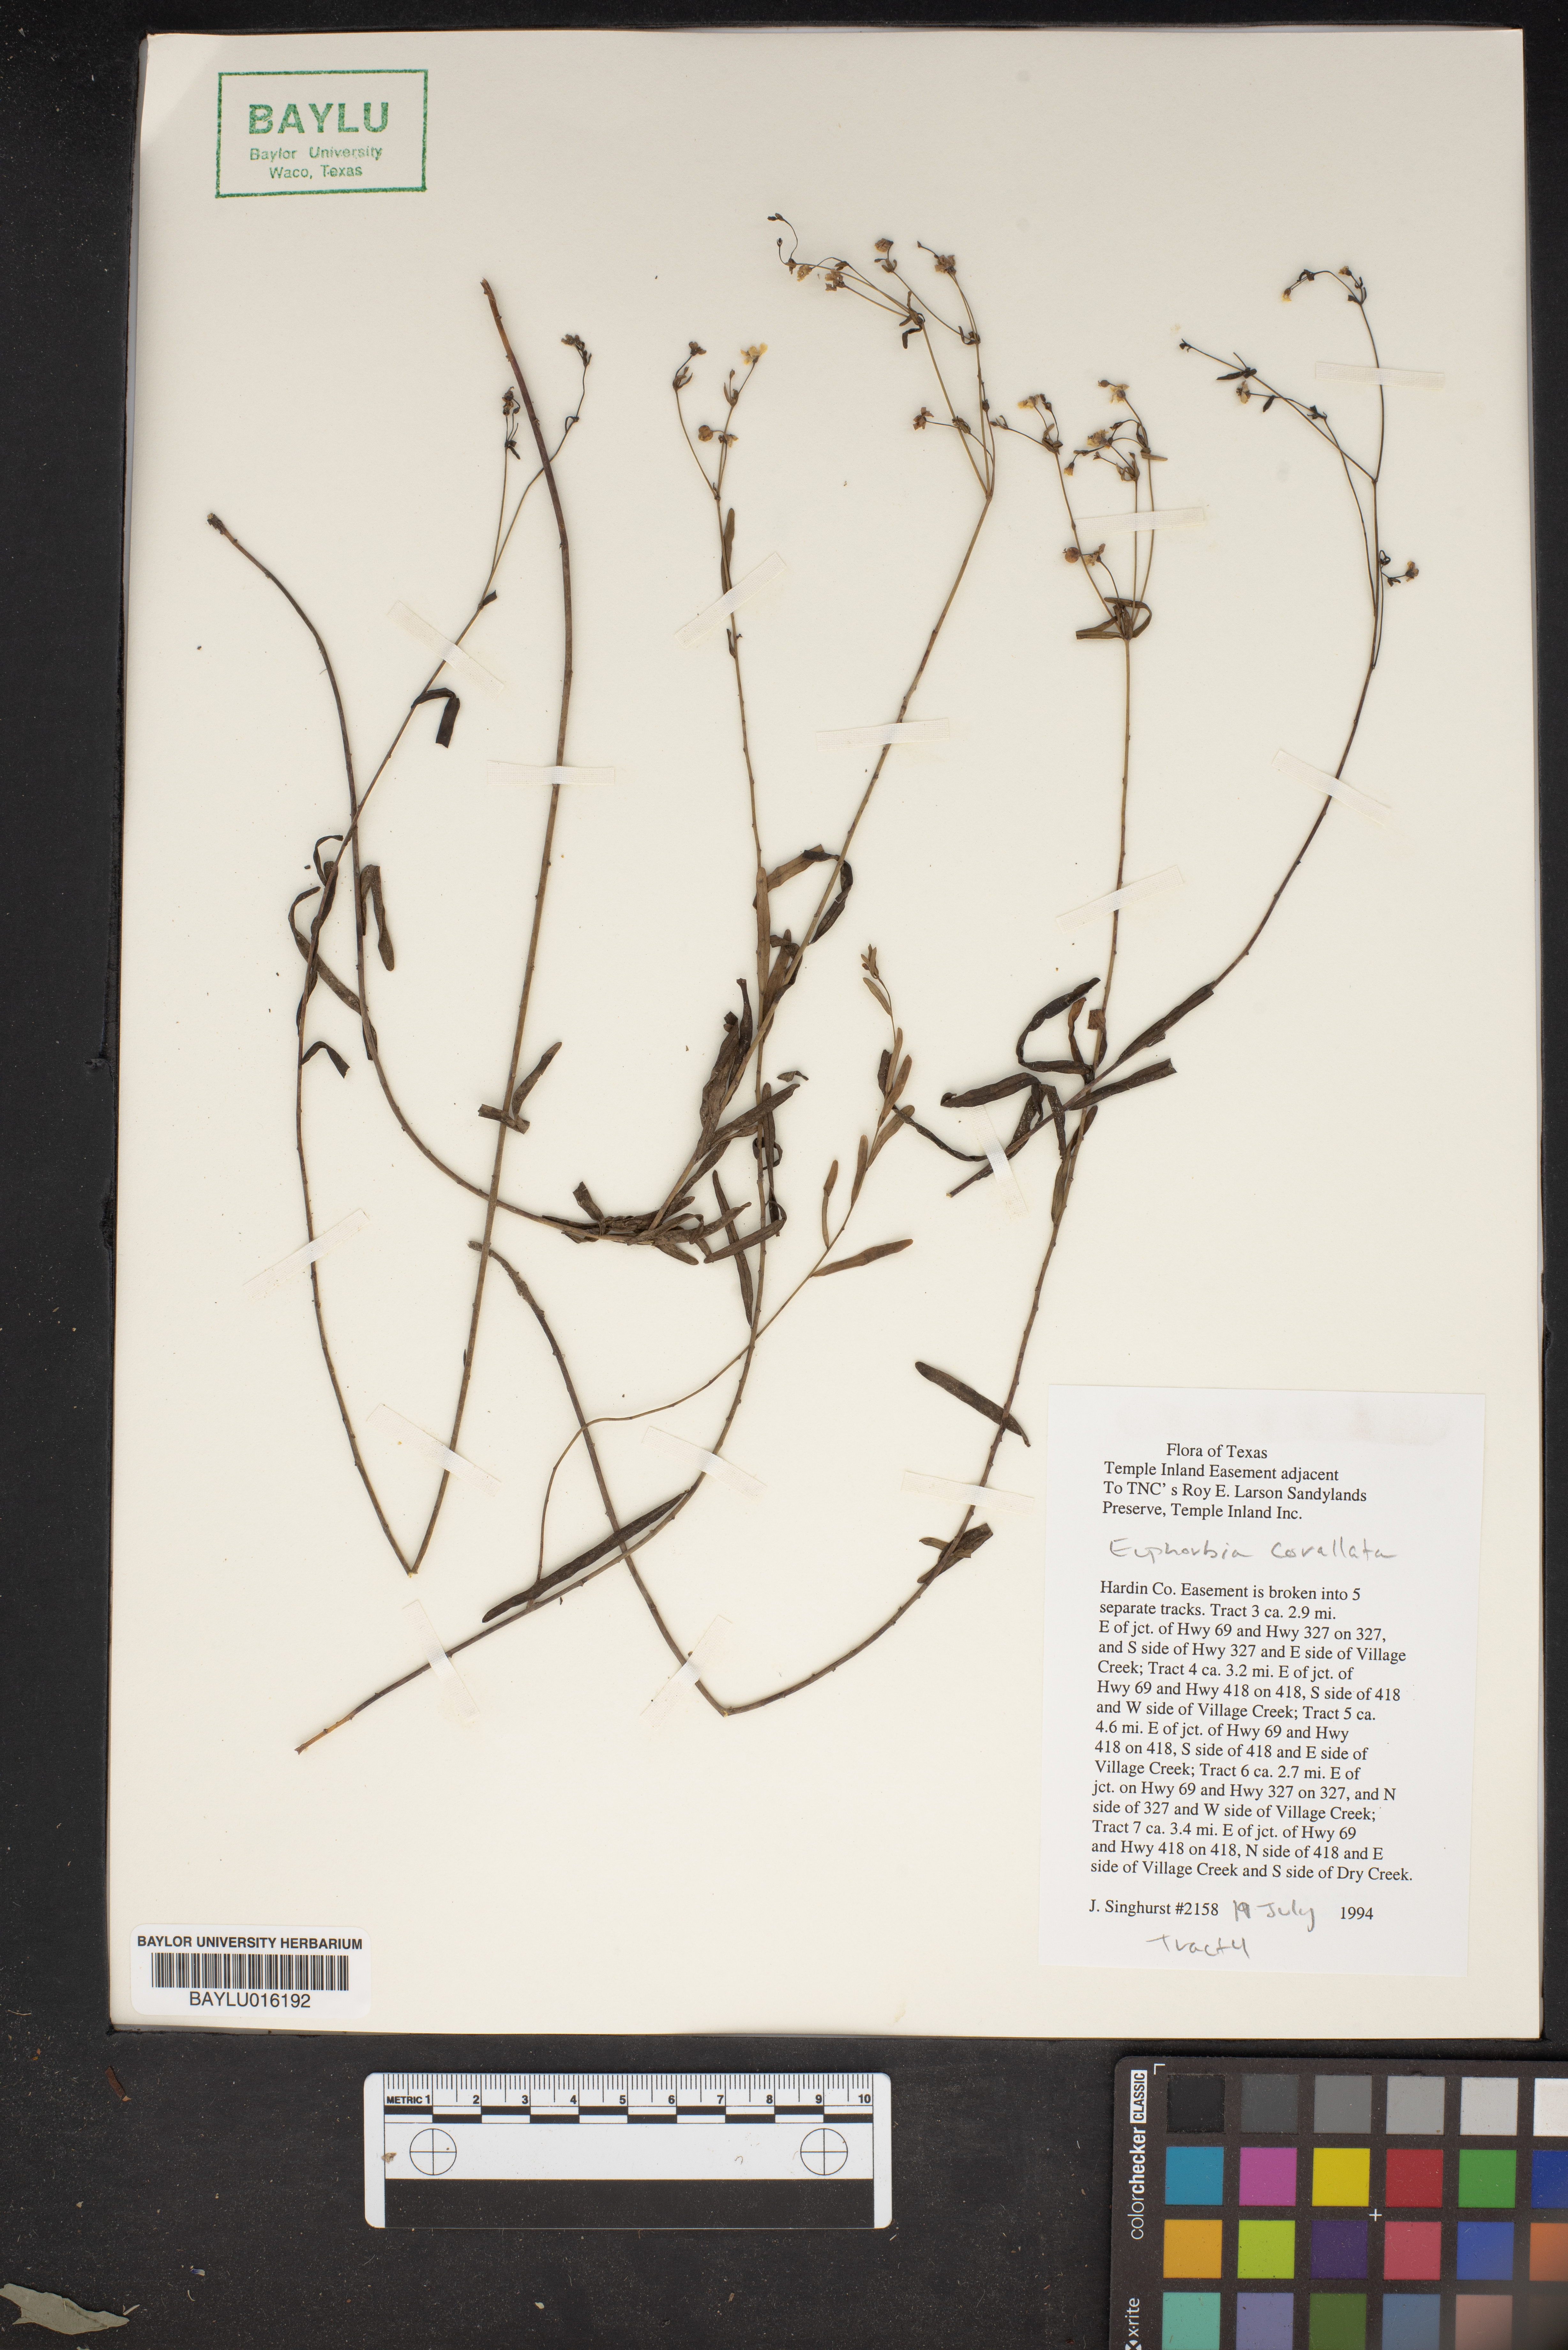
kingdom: Plantae
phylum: Tracheophyta
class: Magnoliopsida
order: Malpighiales
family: Euphorbiaceae
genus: Euphorbia
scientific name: Euphorbia corollata
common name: Flowering spurge
